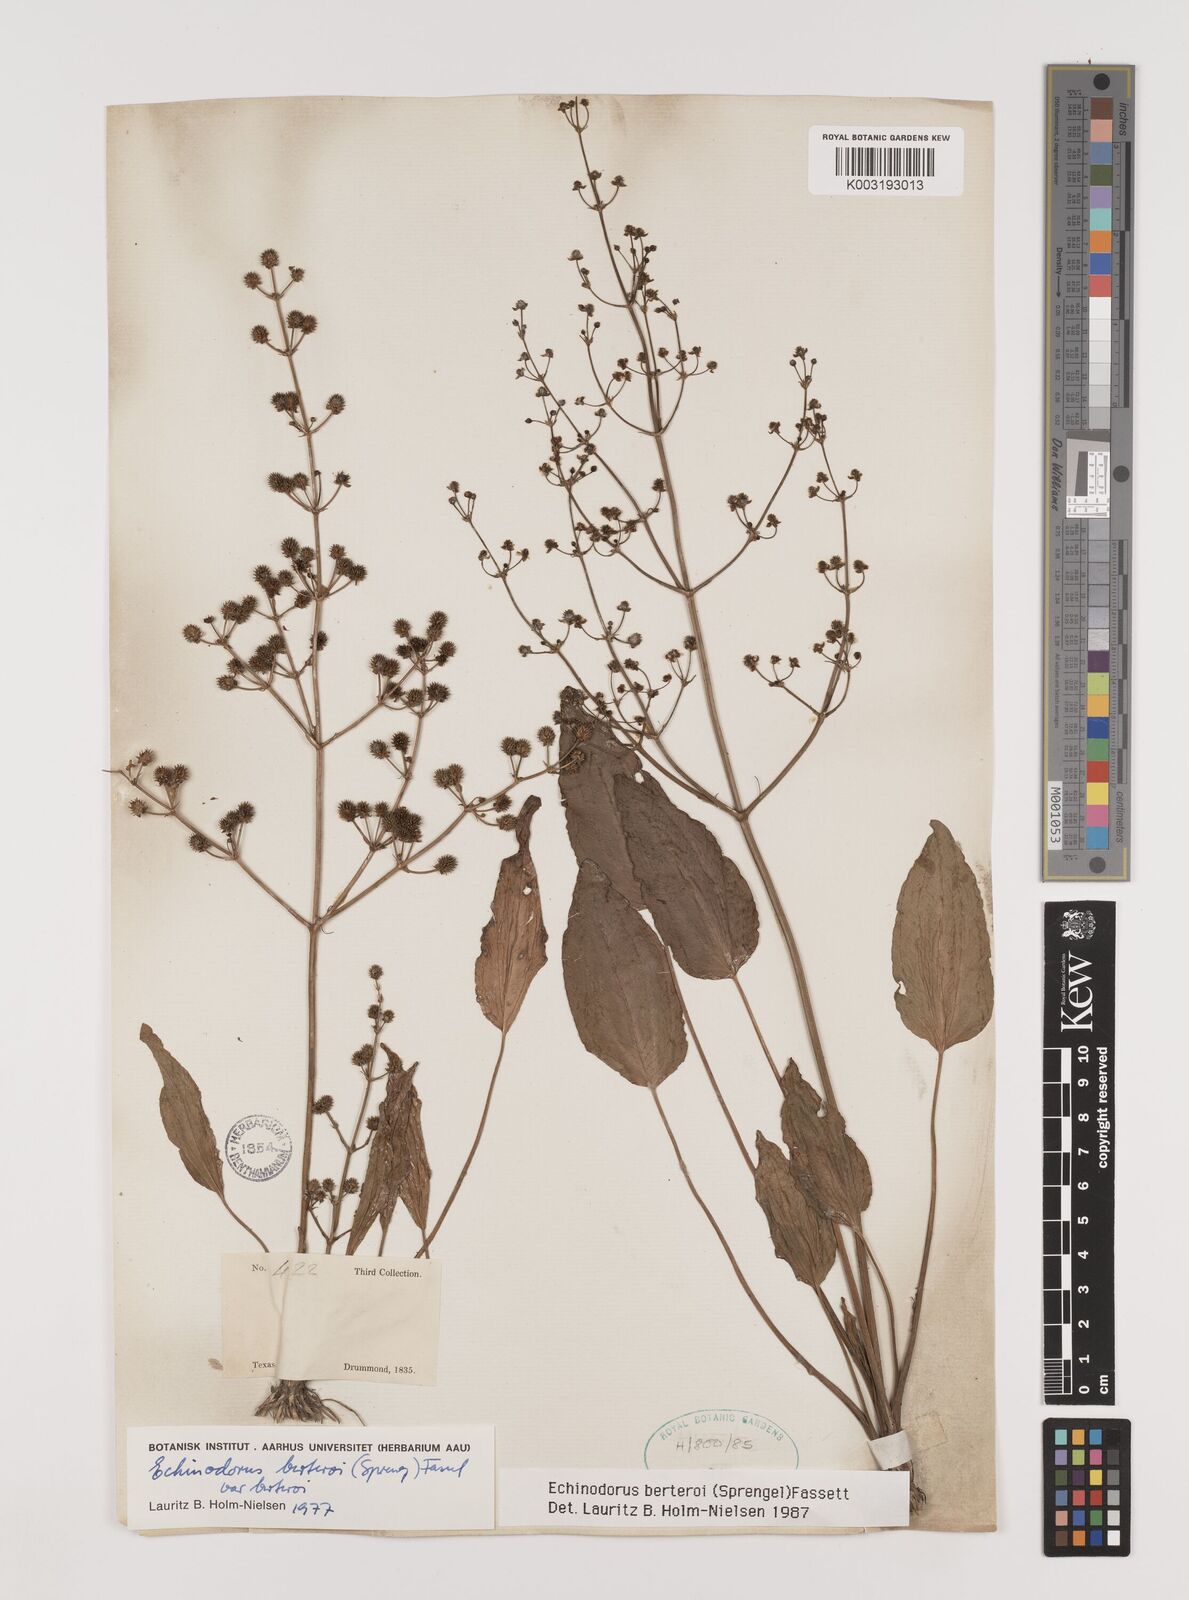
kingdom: Plantae
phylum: Tracheophyta
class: Liliopsida
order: Alismatales
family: Alismataceae
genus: Echinodorus
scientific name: Echinodorus berteroi
